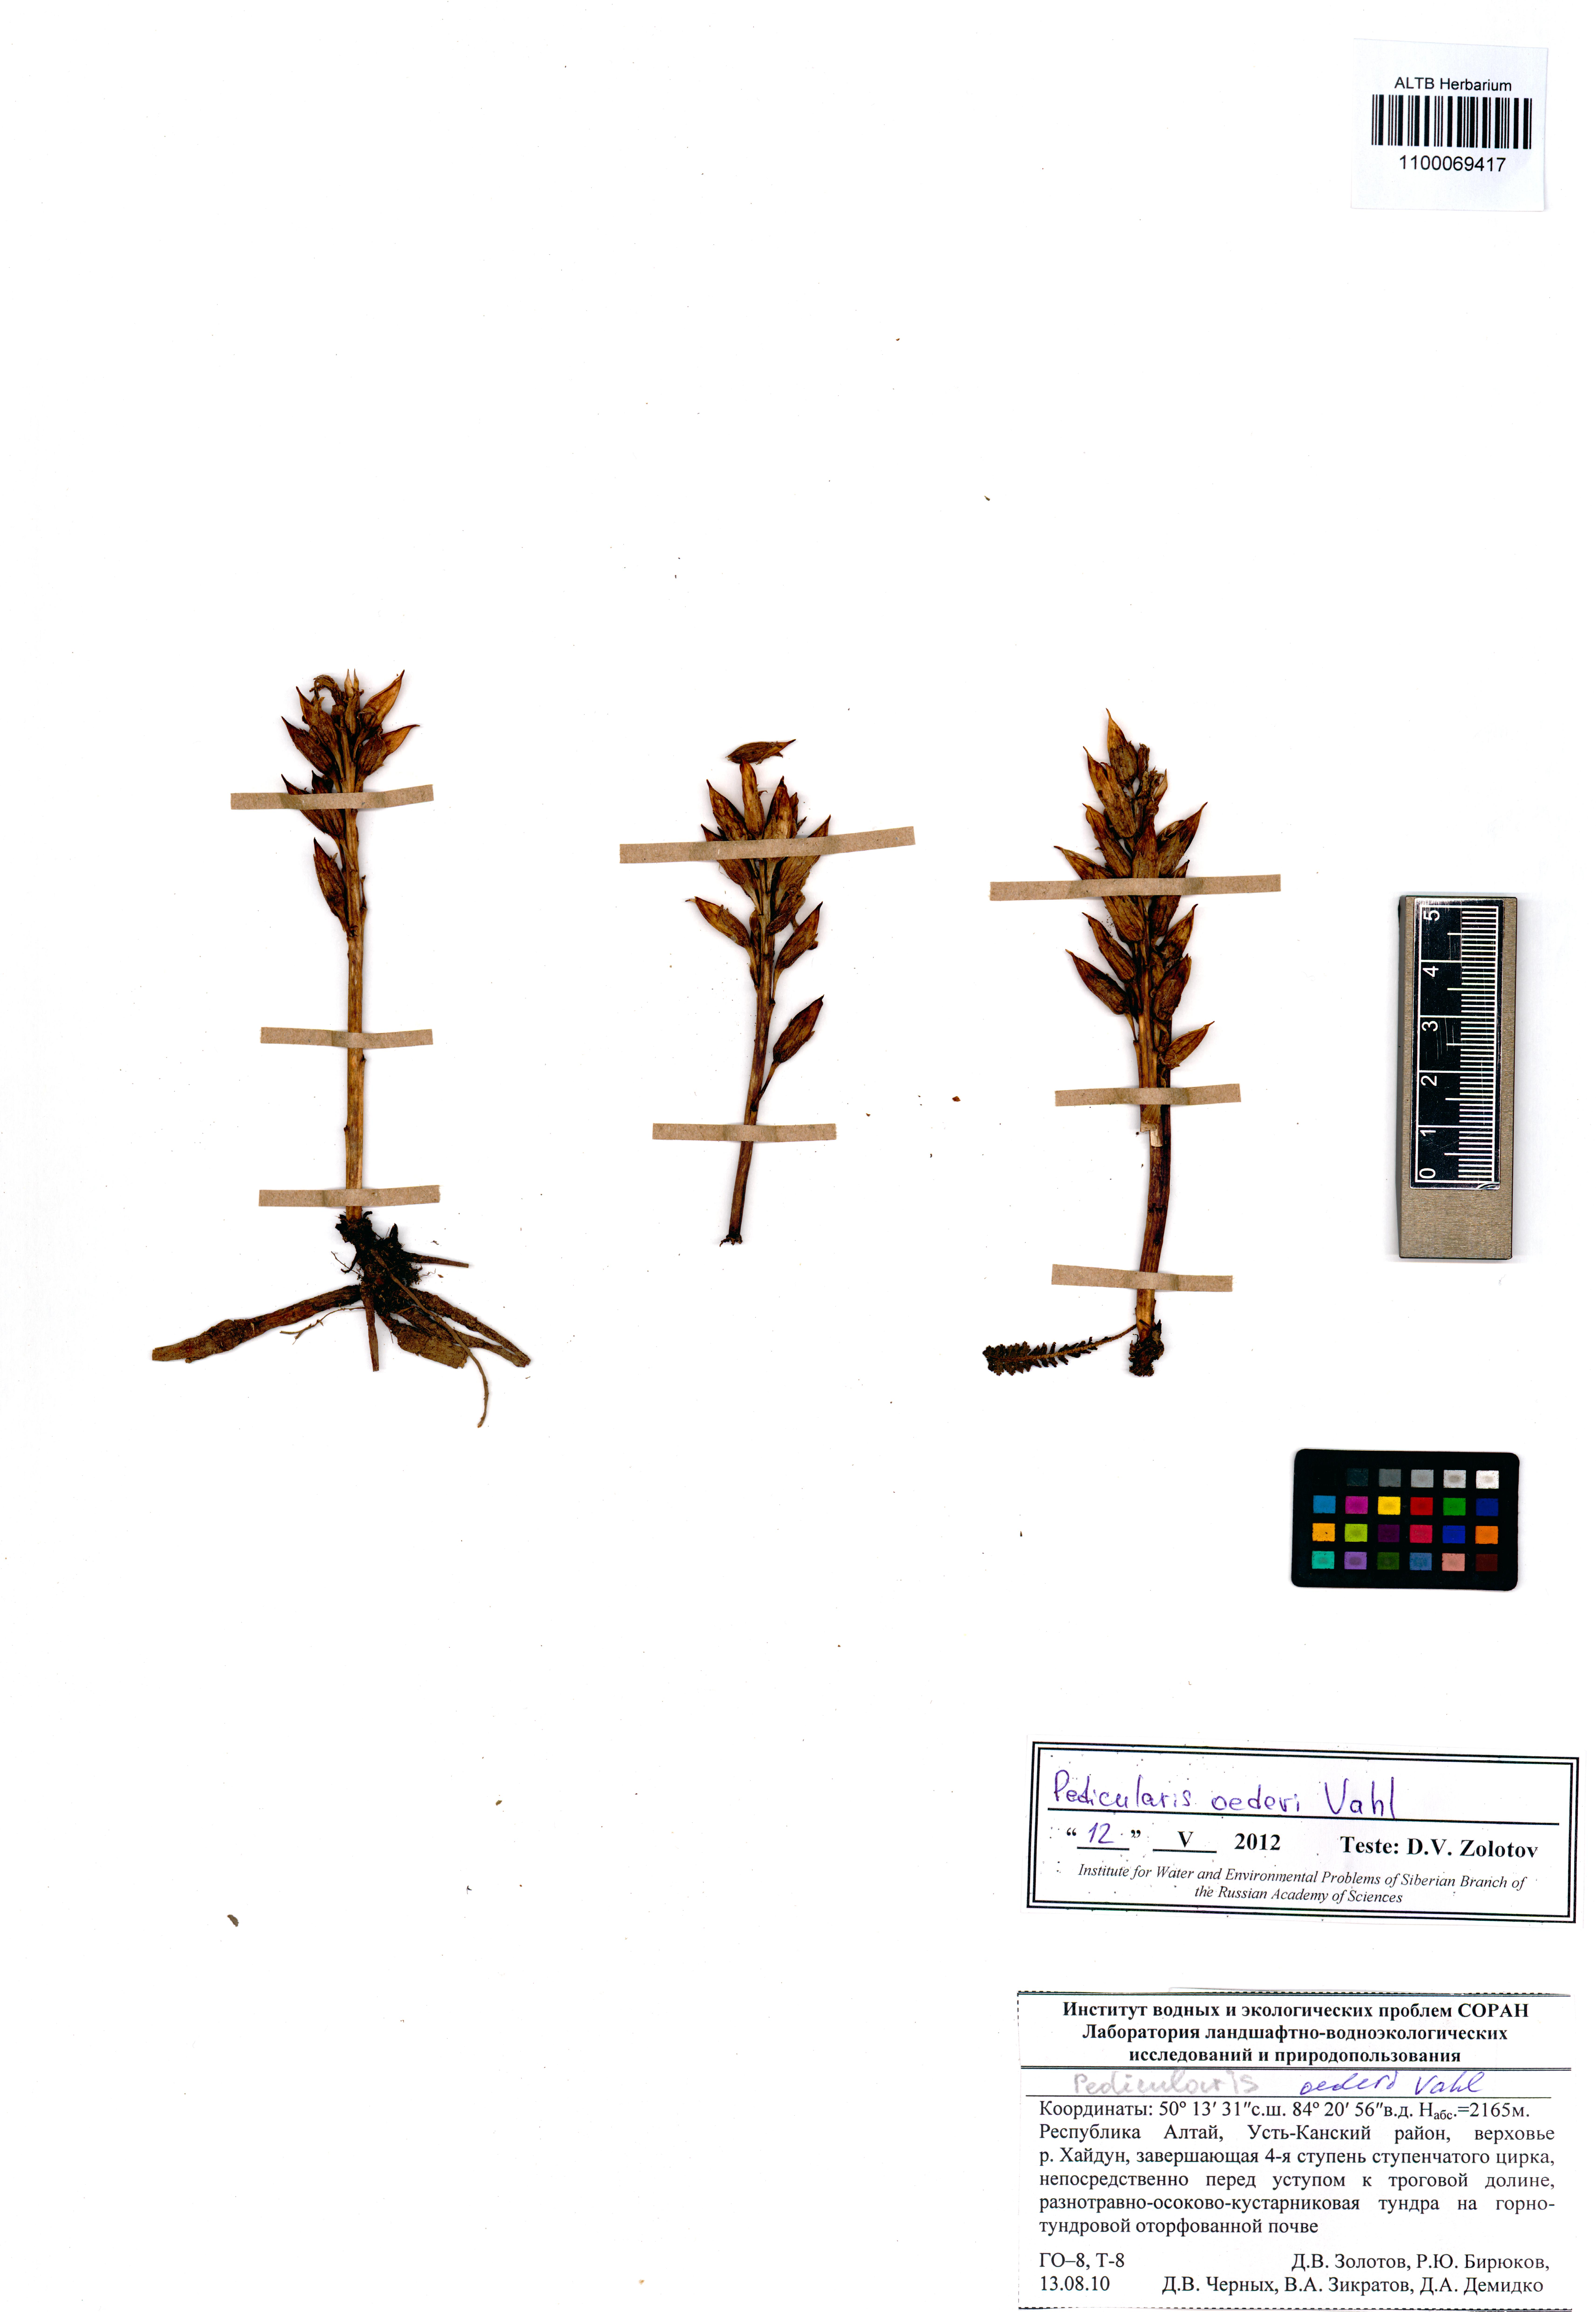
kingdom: Plantae
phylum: Tracheophyta
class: Magnoliopsida
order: Lamiales
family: Orobanchaceae
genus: Pedicularis
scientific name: Pedicularis oederi
